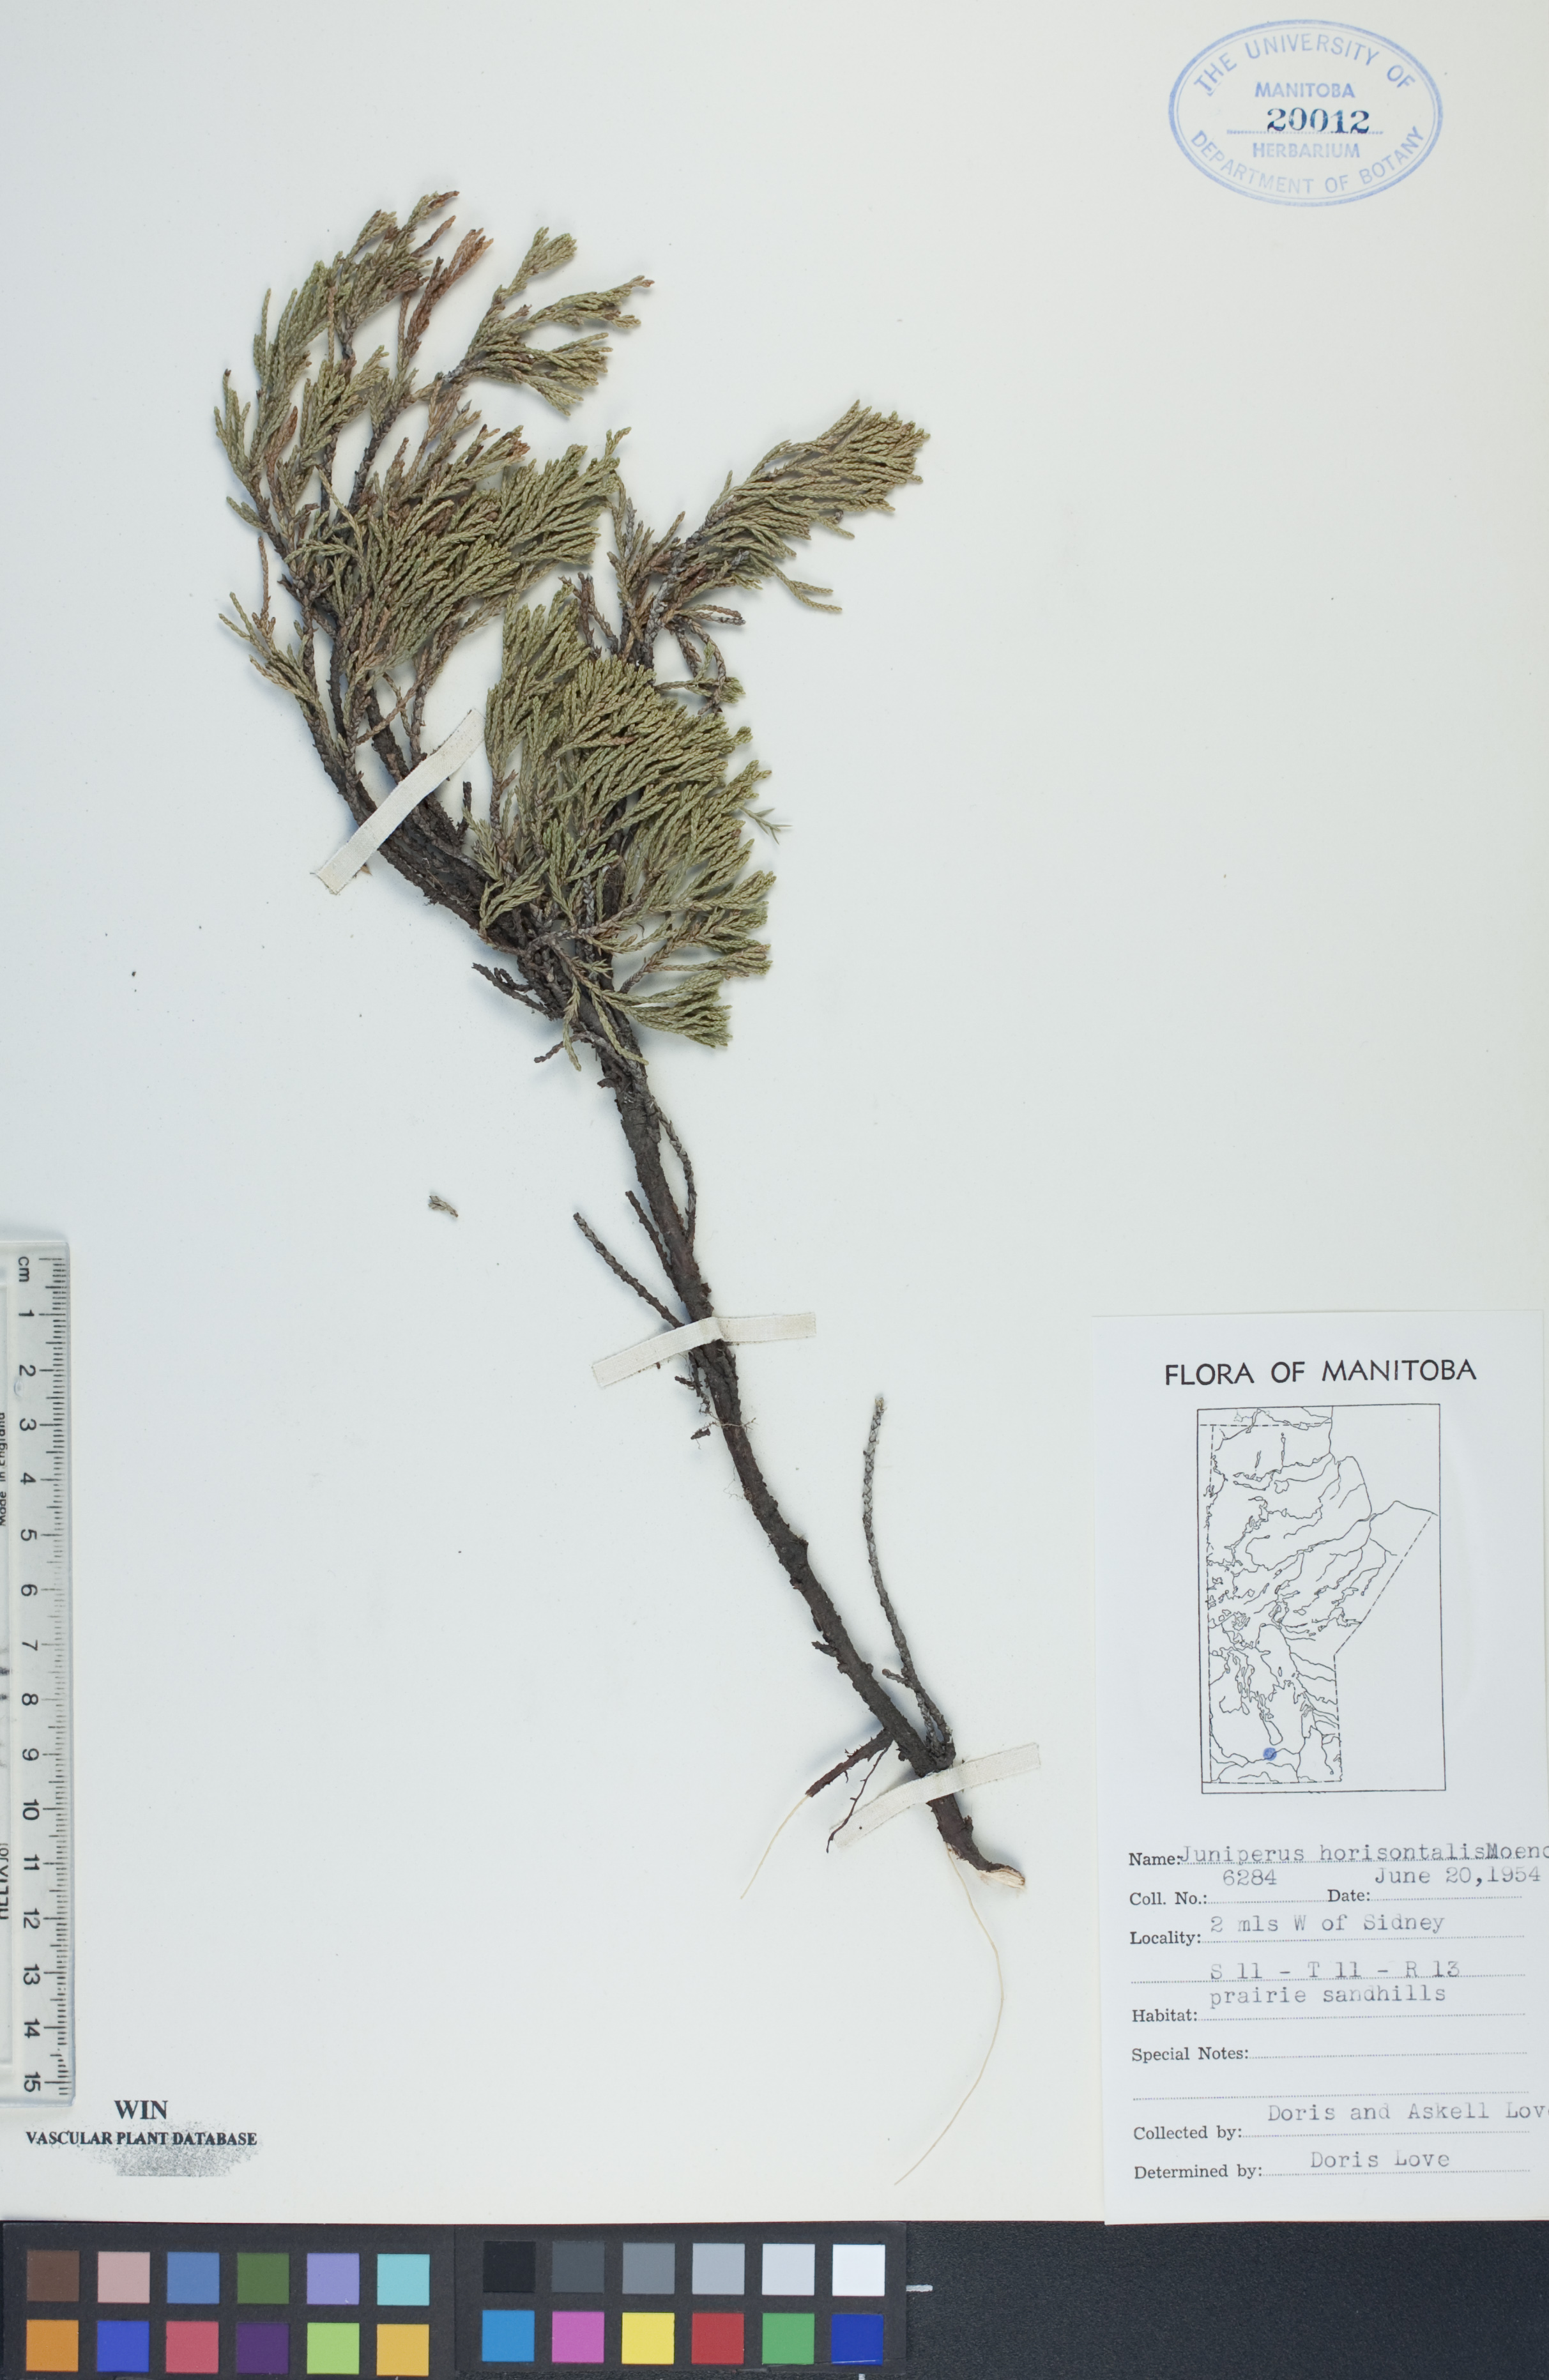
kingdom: Plantae
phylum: Tracheophyta
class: Pinopsida
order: Pinales
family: Cupressaceae
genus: Juniperus
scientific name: Juniperus horizontalis
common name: Creeping juniper
